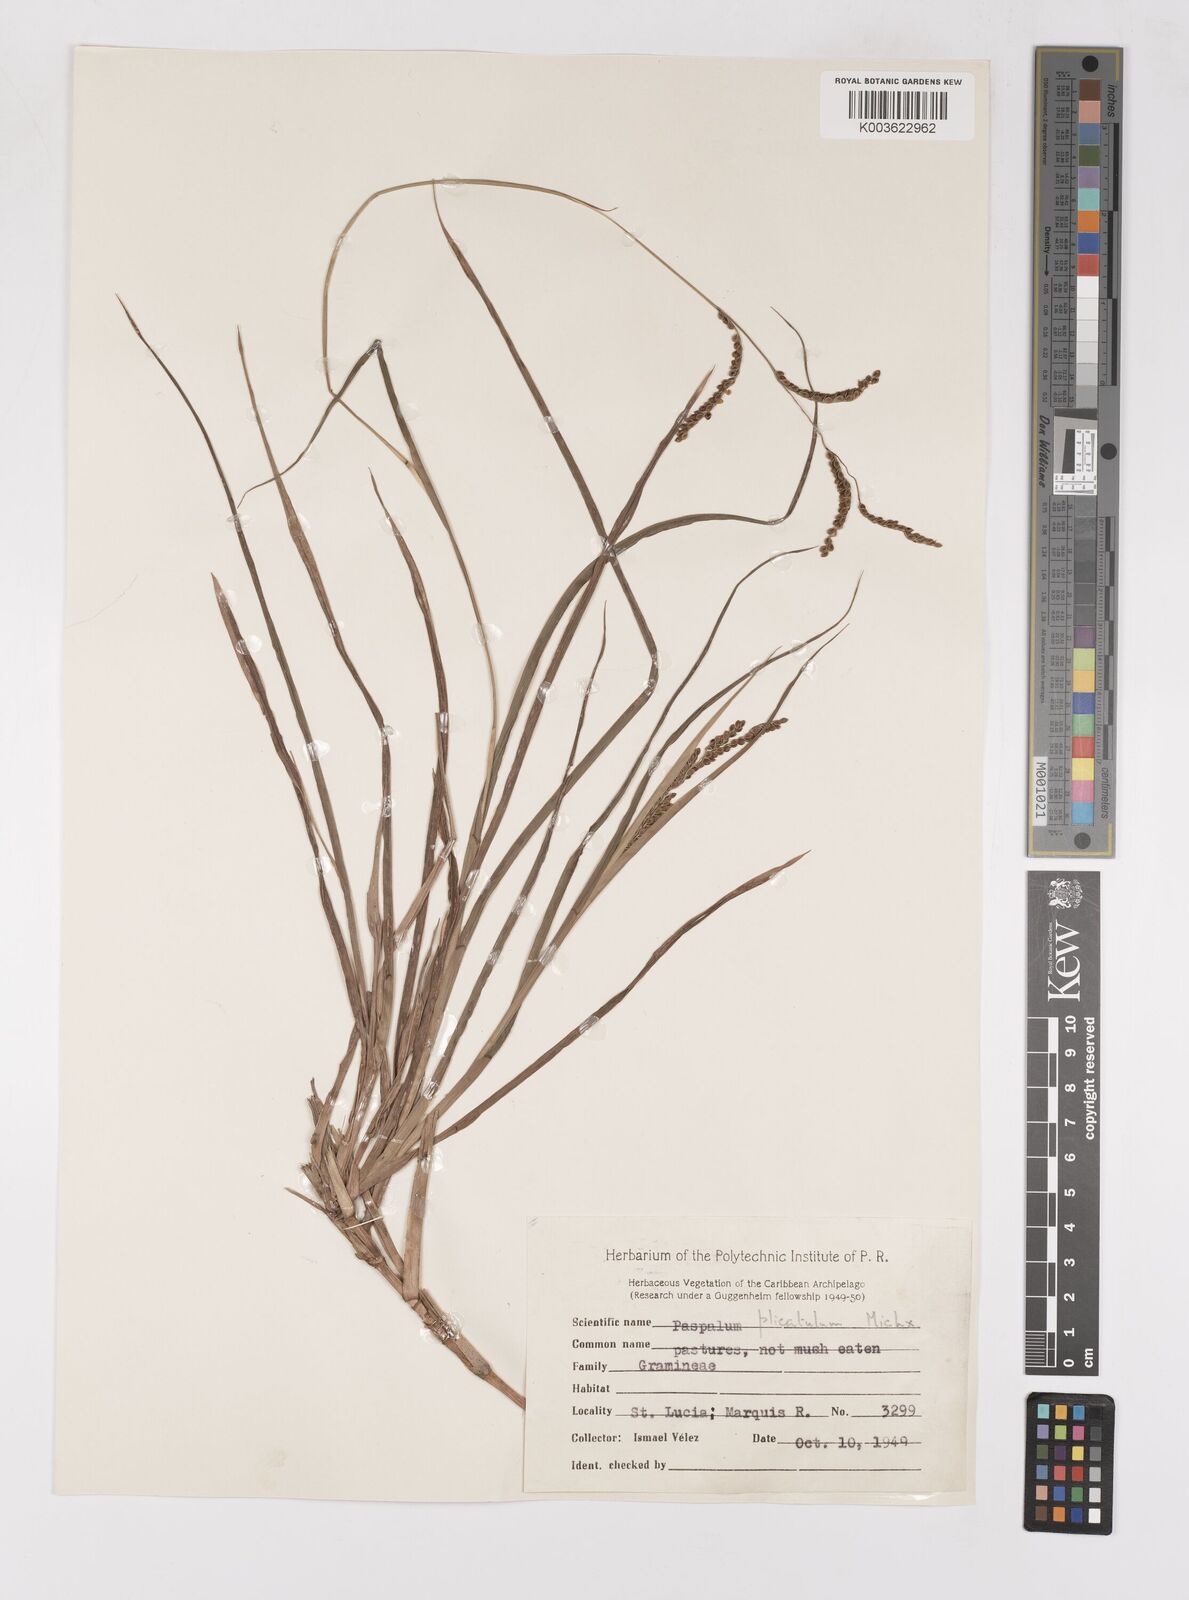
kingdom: Plantae
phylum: Tracheophyta
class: Liliopsida
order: Poales
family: Poaceae
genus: Paspalum
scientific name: Paspalum plicatulum
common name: Top paspalum
